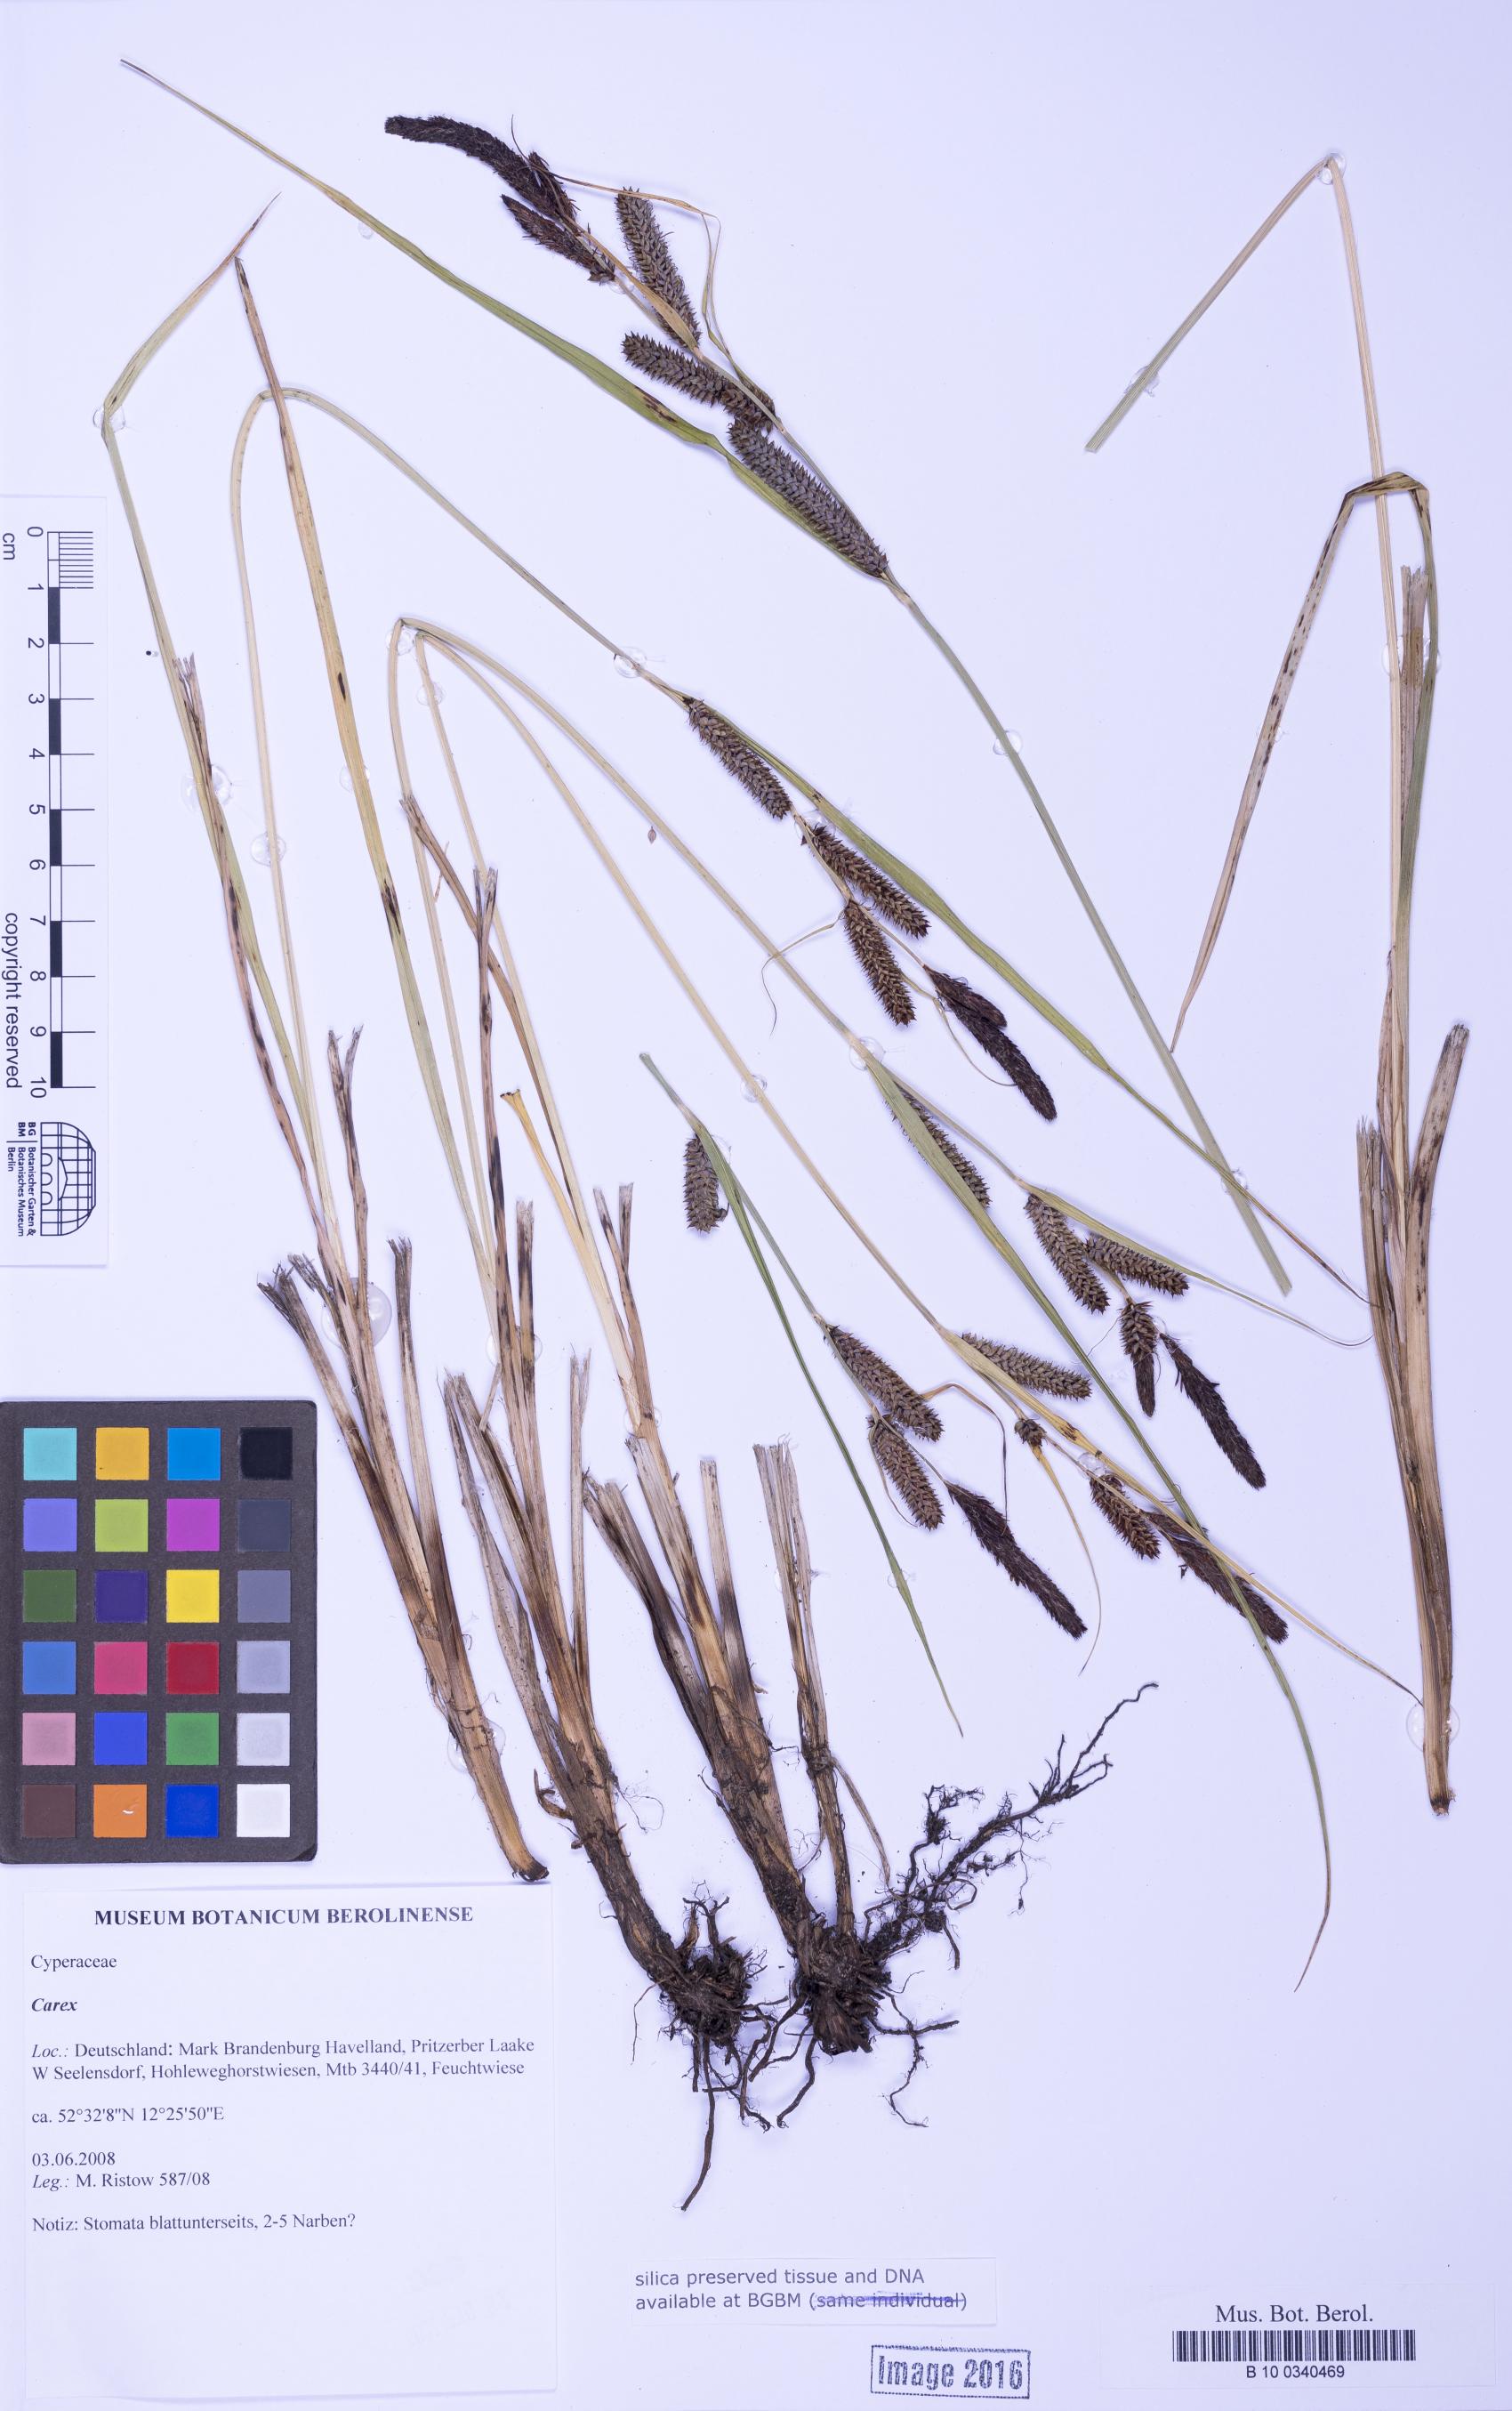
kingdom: Plantae
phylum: Tracheophyta
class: Liliopsida
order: Poales
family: Cyperaceae
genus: Carex
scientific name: Carex
